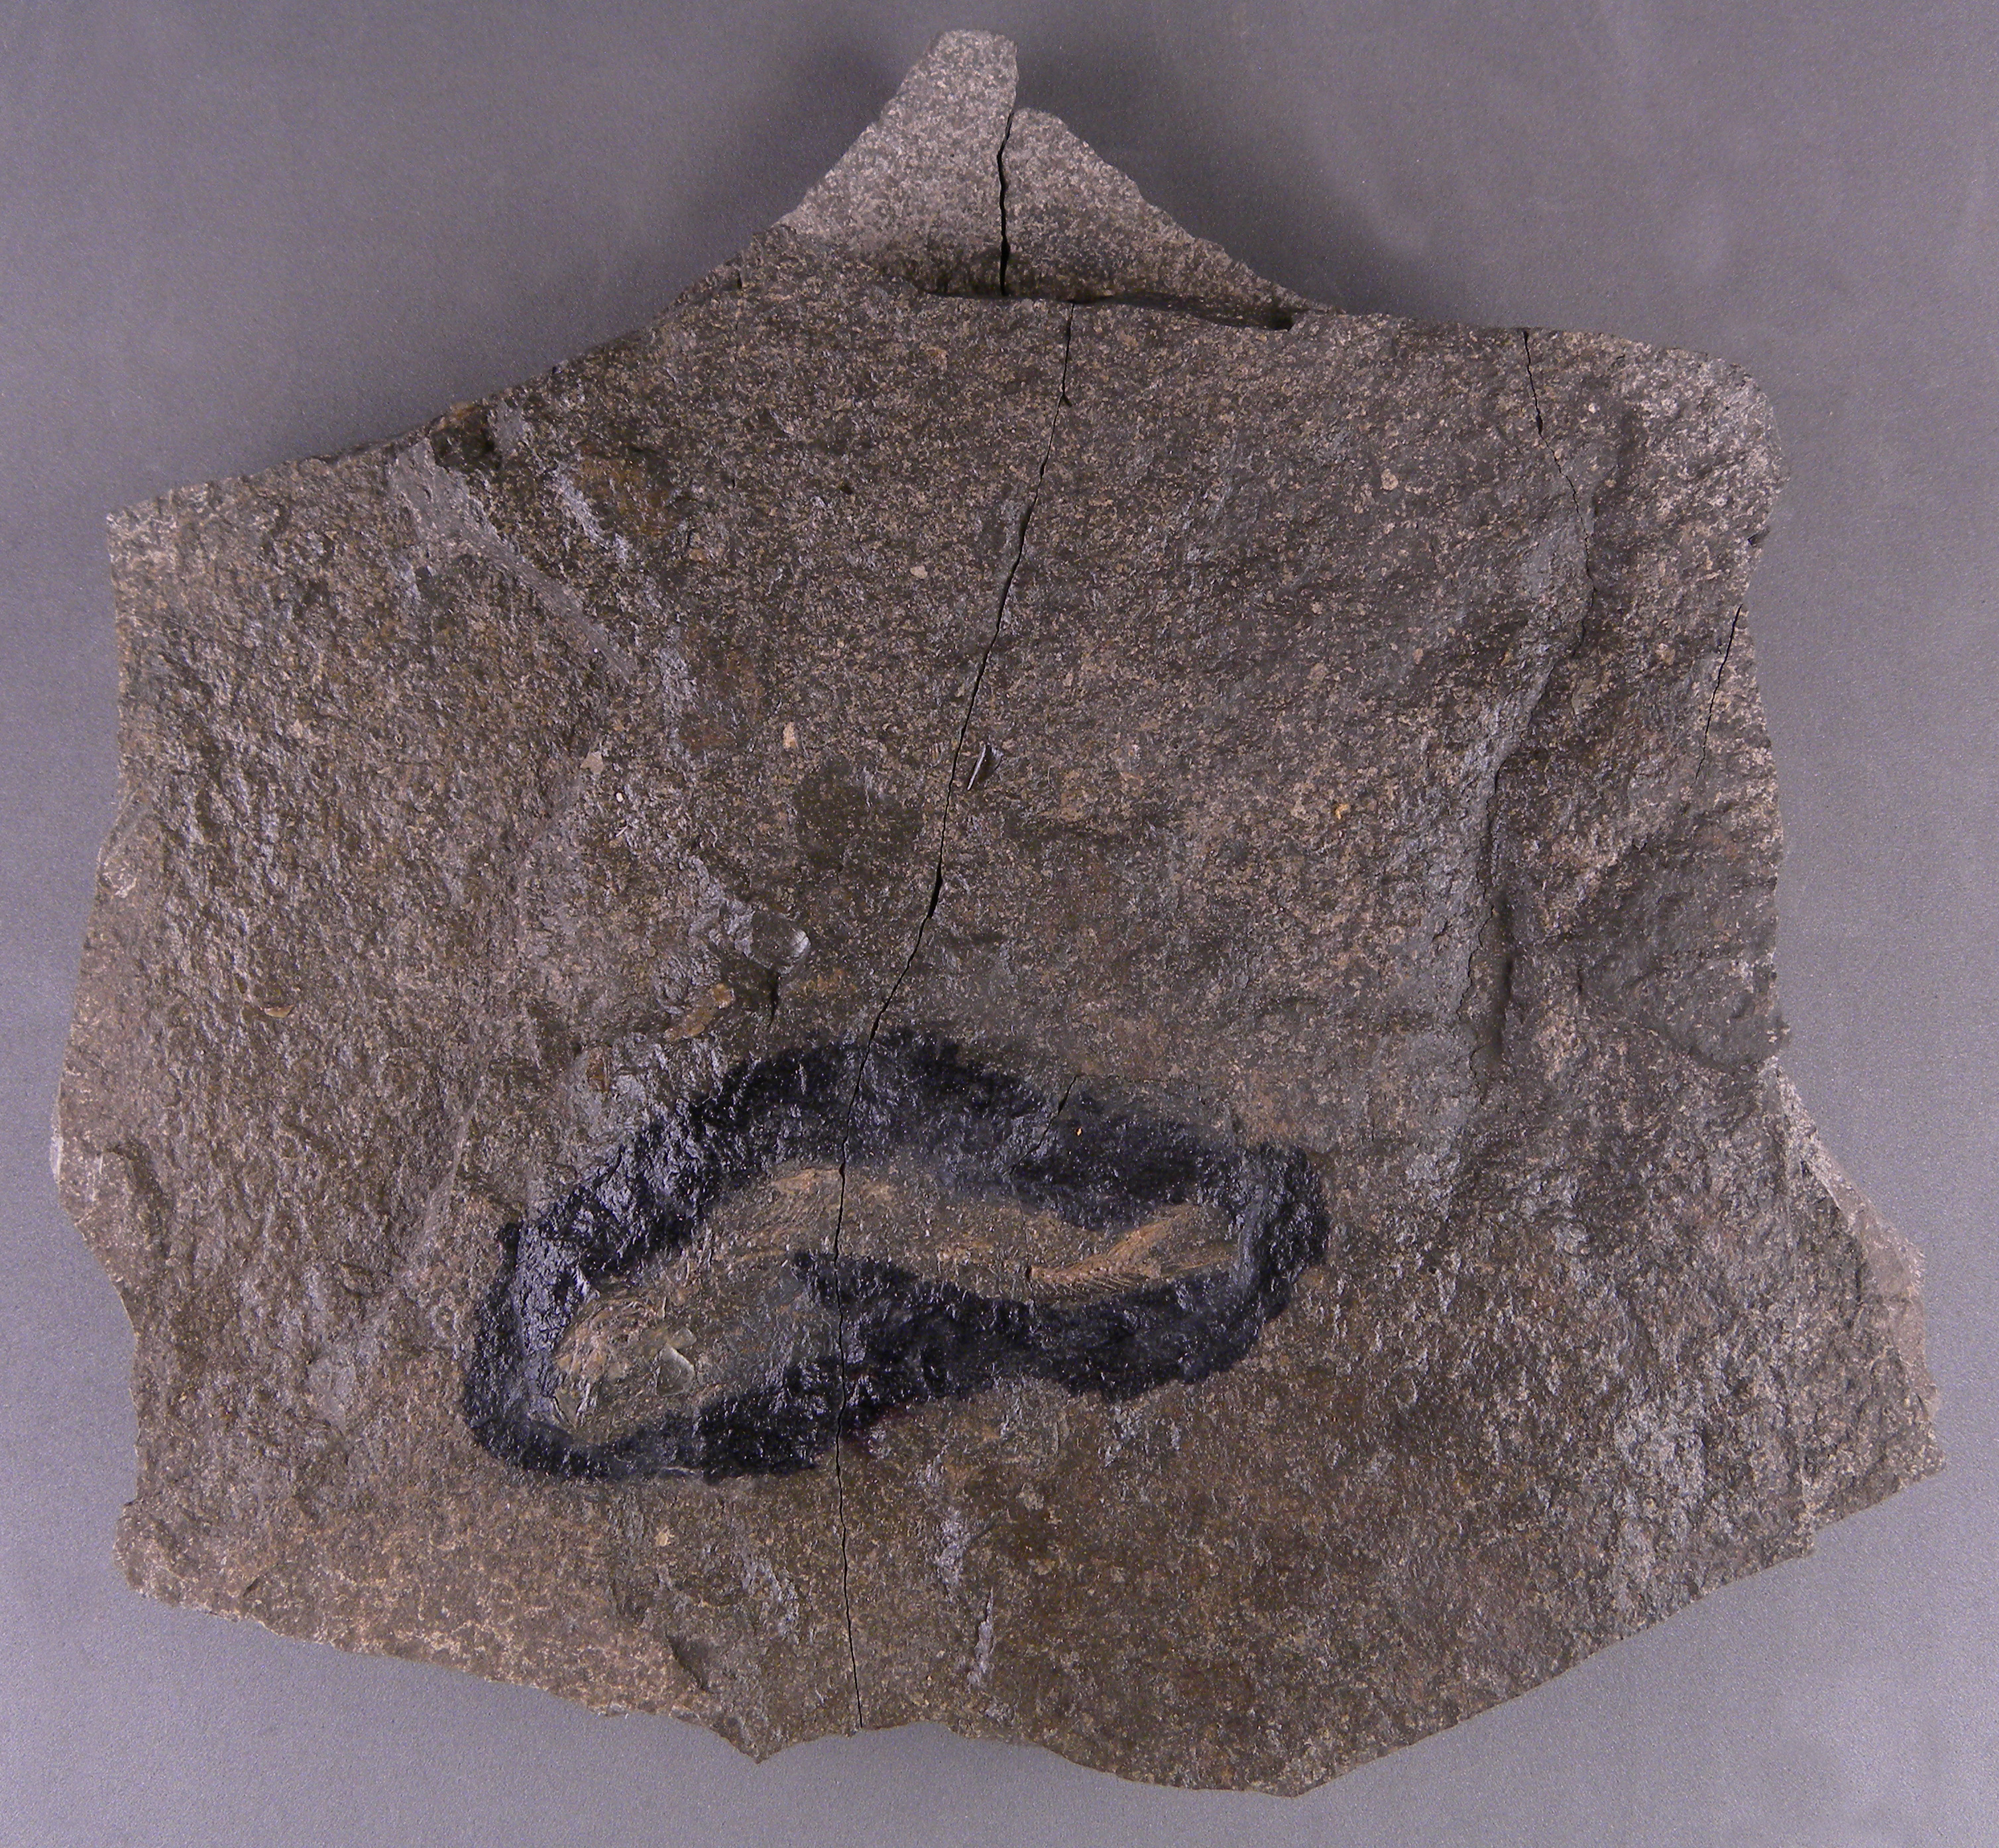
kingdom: Animalia
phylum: Chordata
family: Leptolepididae
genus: Leptolepis
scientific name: Leptolepis normandica
